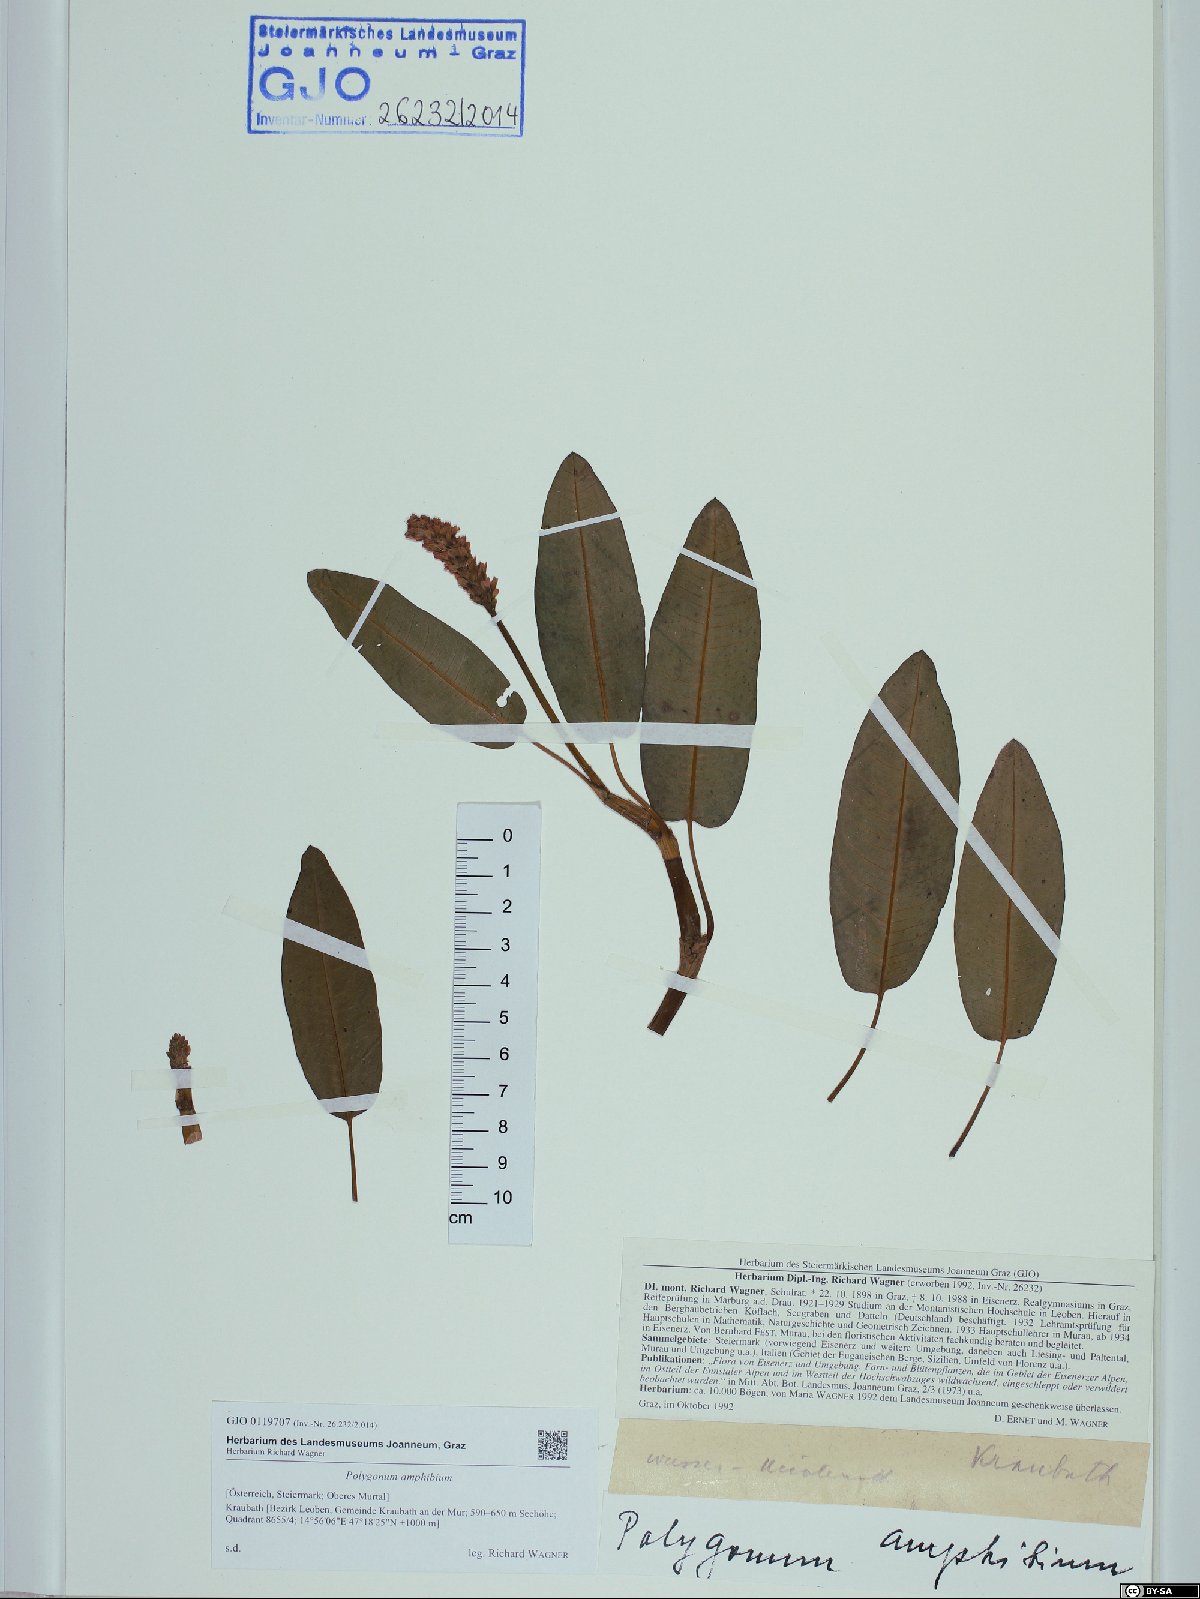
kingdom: Plantae
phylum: Tracheophyta
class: Magnoliopsida
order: Caryophyllales
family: Polygonaceae
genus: Persicaria
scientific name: Persicaria amphibia
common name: Amphibious bistort
